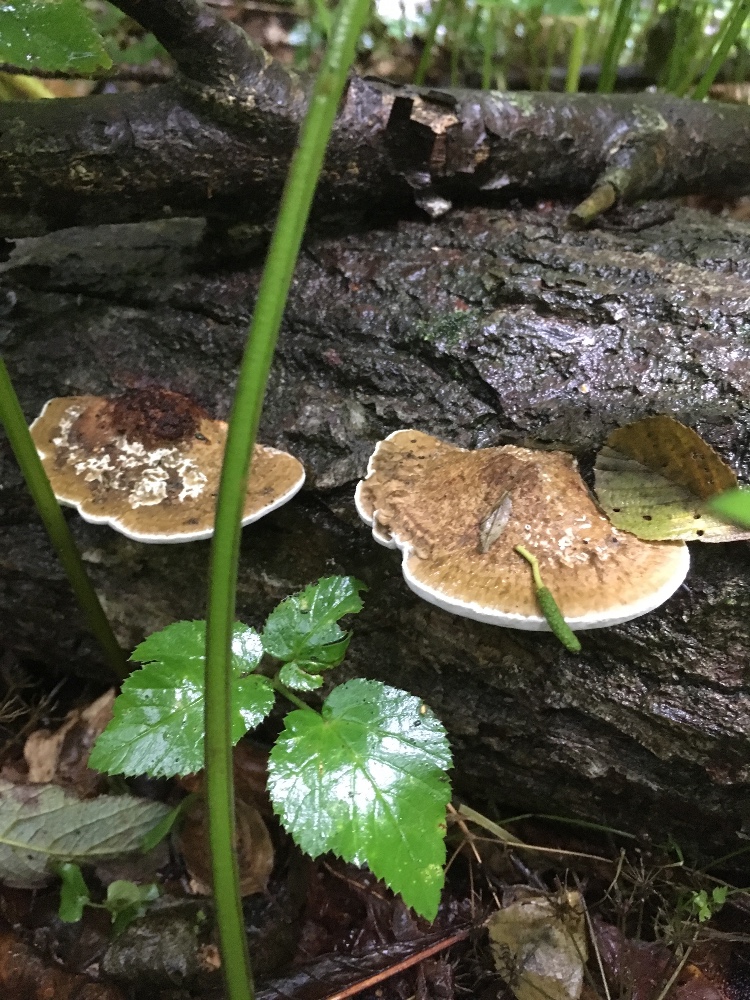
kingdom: Fungi
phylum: Basidiomycota
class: Agaricomycetes
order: Polyporales
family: Polyporaceae
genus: Daedaleopsis
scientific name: Daedaleopsis confragosa
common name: rødmende læderporesvamp
